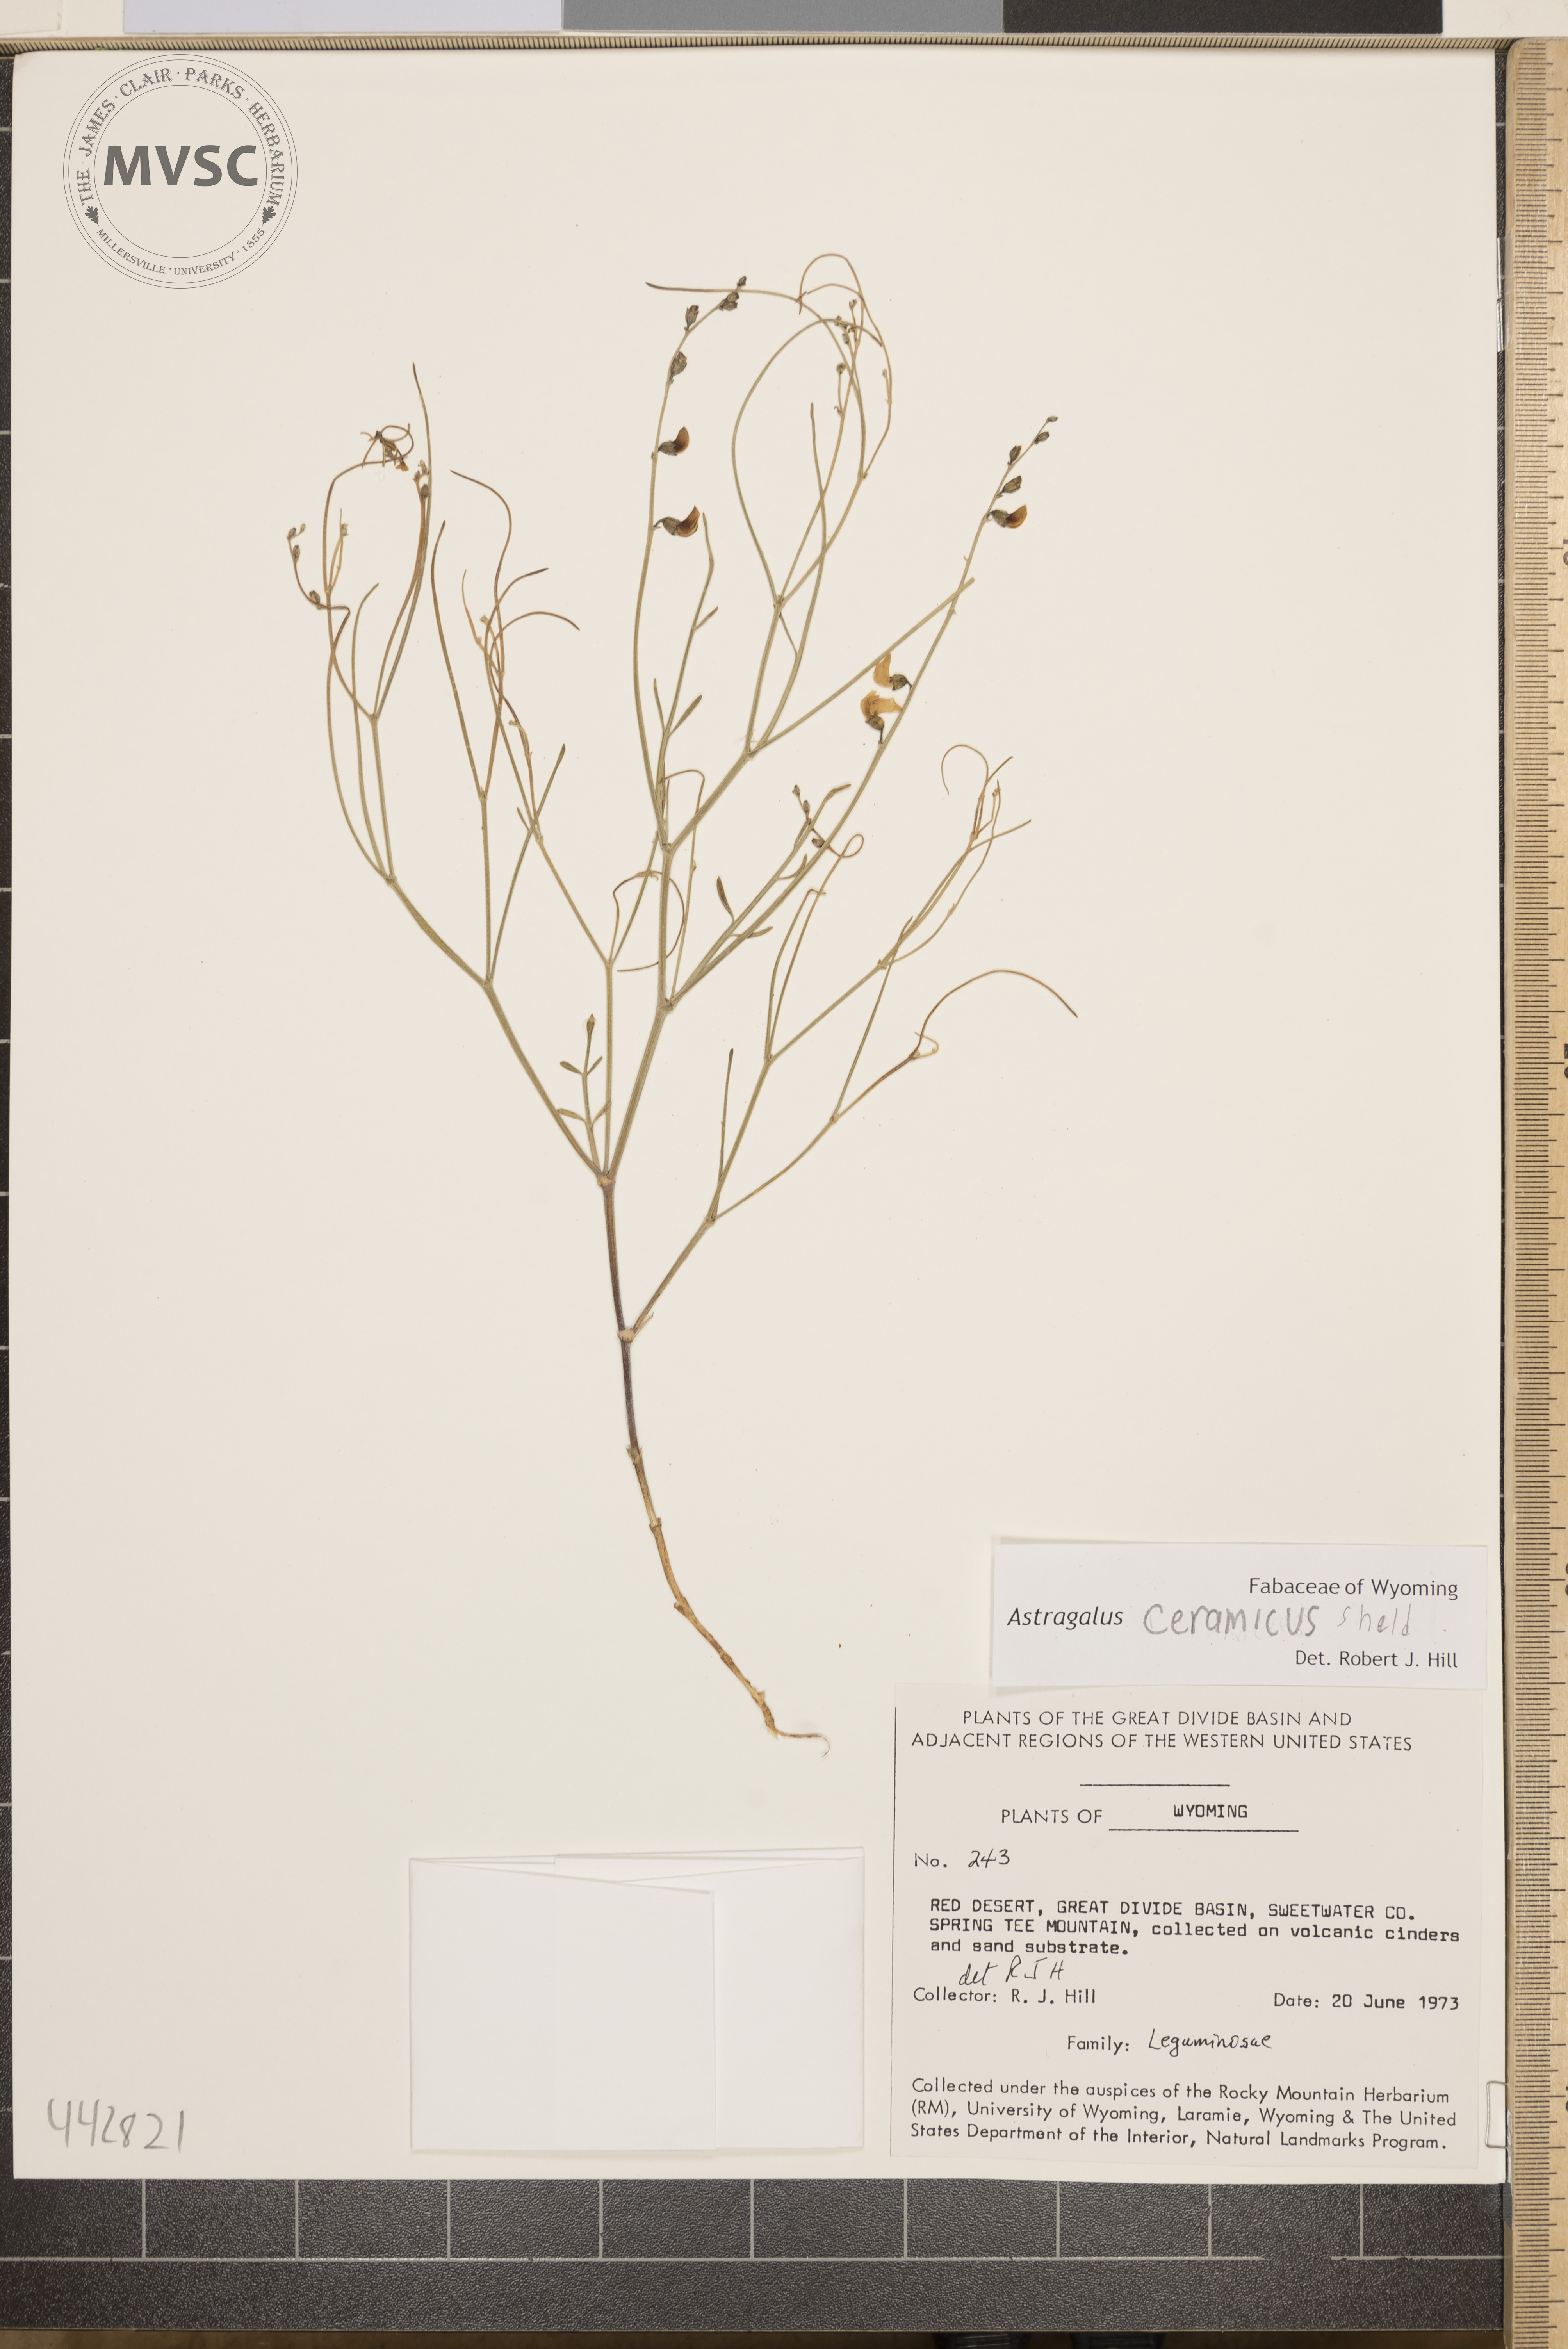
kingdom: Plantae
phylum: Tracheophyta
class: Magnoliopsida
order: Fabales
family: Fabaceae
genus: Astragalus
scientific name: Astragalus ceramicus
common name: Painted milk-vetch
